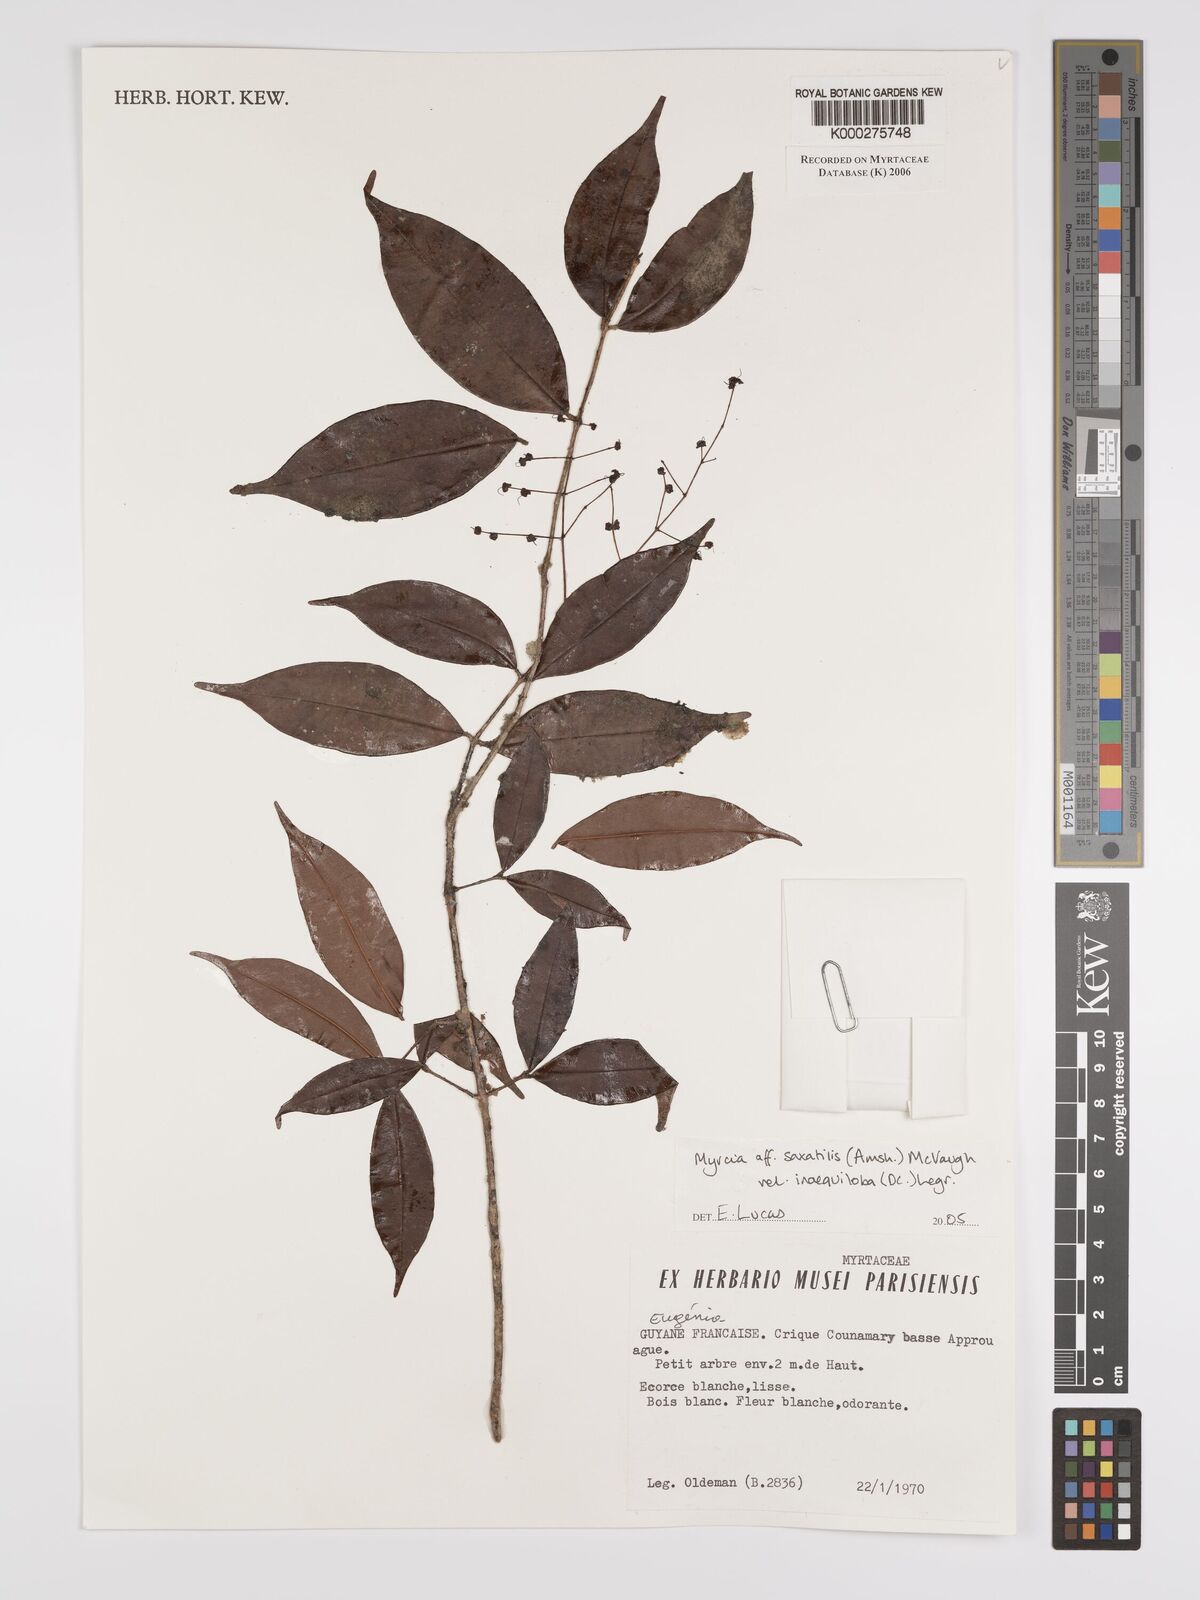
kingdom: Plantae
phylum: Tracheophyta
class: Magnoliopsida
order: Myrtales
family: Myrtaceae
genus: Myrcia
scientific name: Myrcia saxatilis
